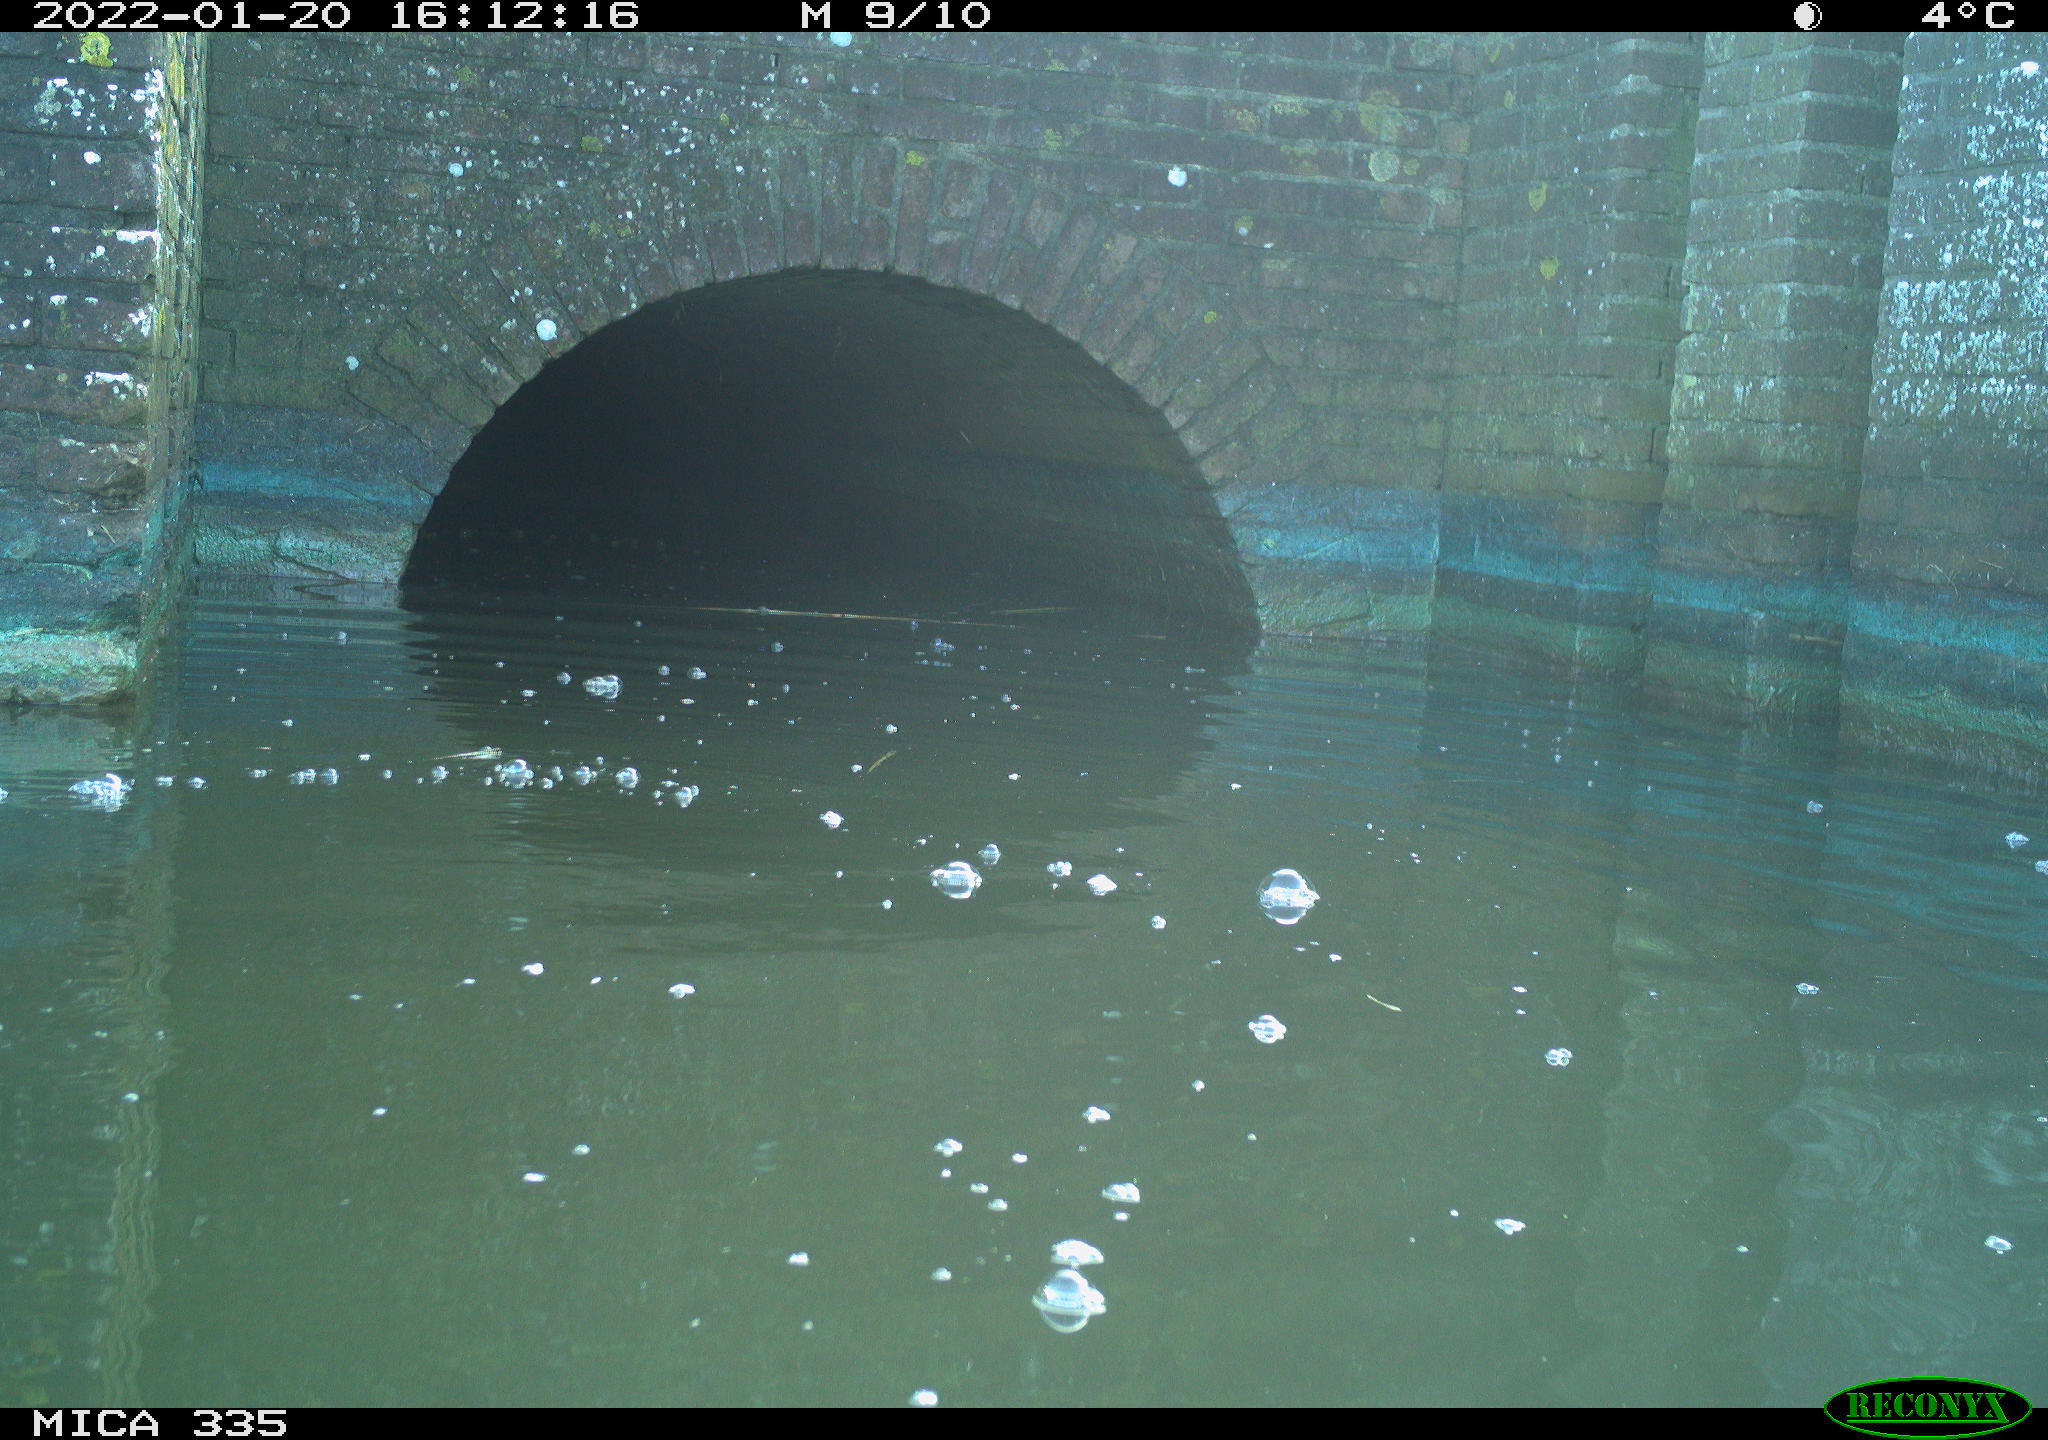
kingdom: Animalia
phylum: Chordata
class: Aves
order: Suliformes
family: Phalacrocoracidae
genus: Phalacrocorax
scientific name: Phalacrocorax carbo
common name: Great cormorant
